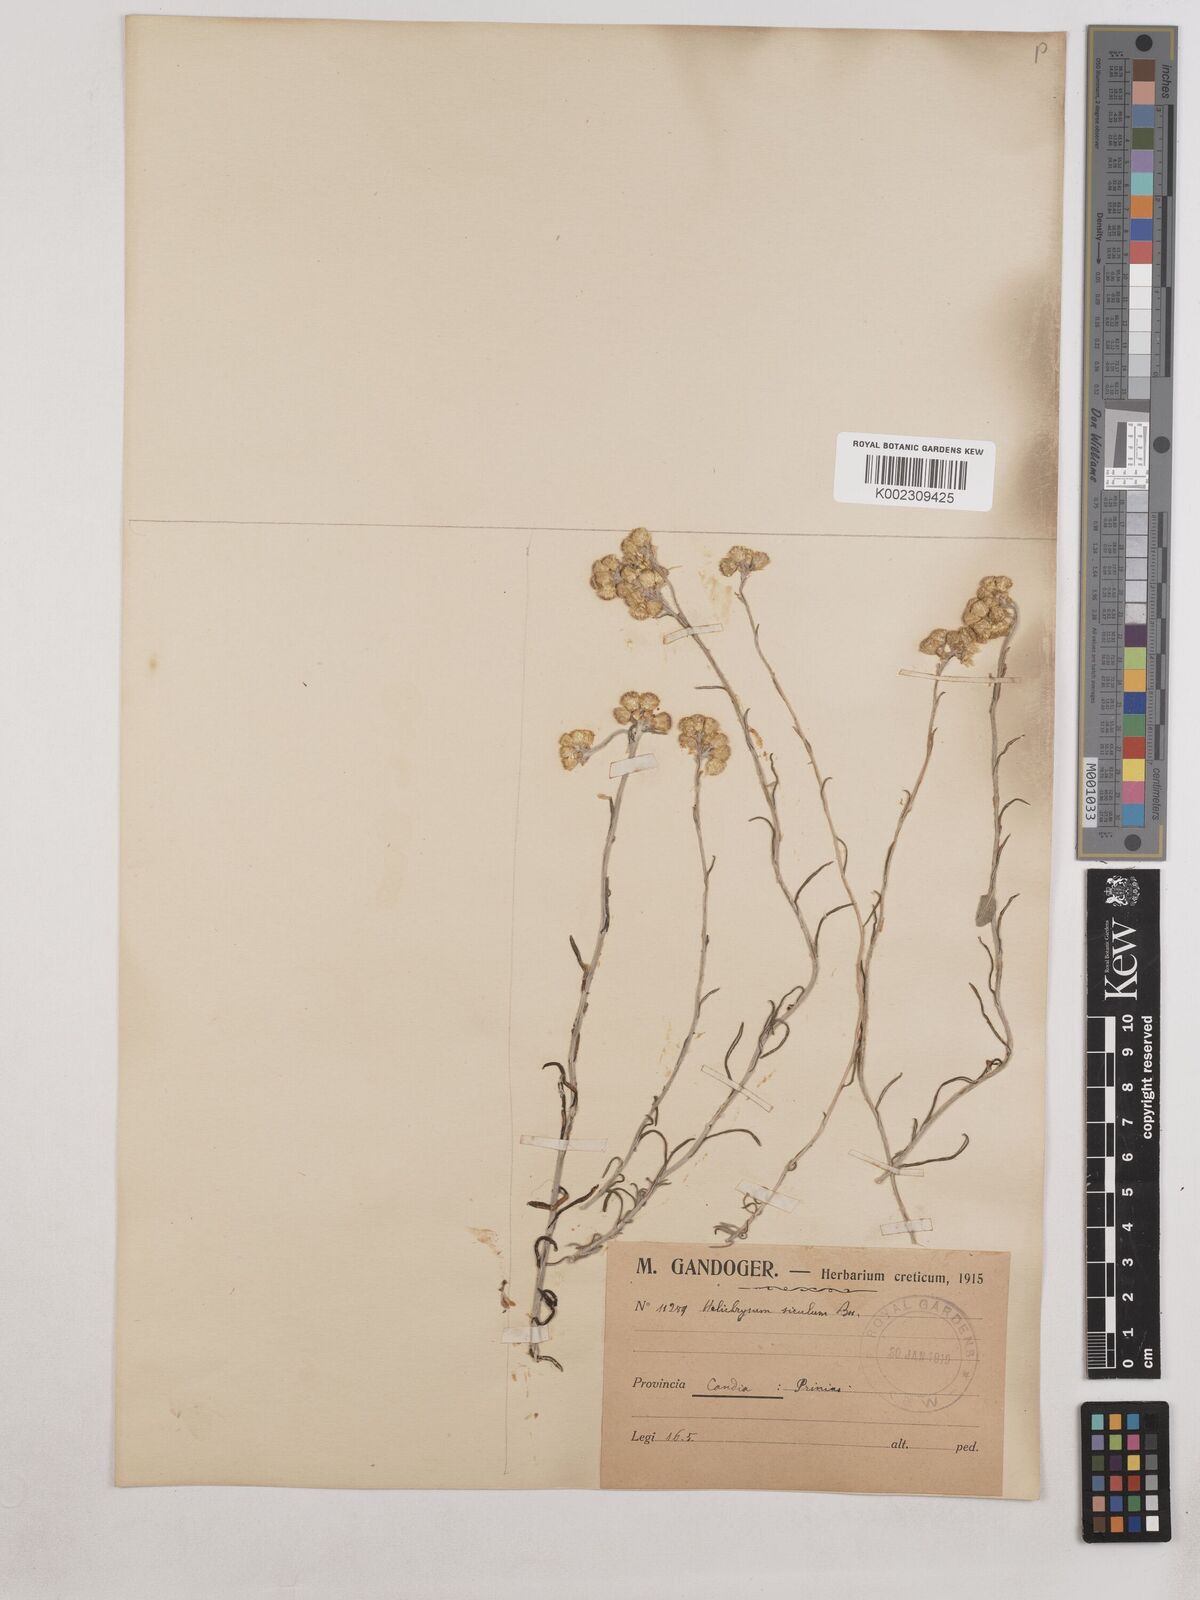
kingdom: Plantae
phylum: Tracheophyta
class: Magnoliopsida
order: Asterales
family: Asteraceae
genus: Helichrysum
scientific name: Helichrysum stoechas
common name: Goldilocks
